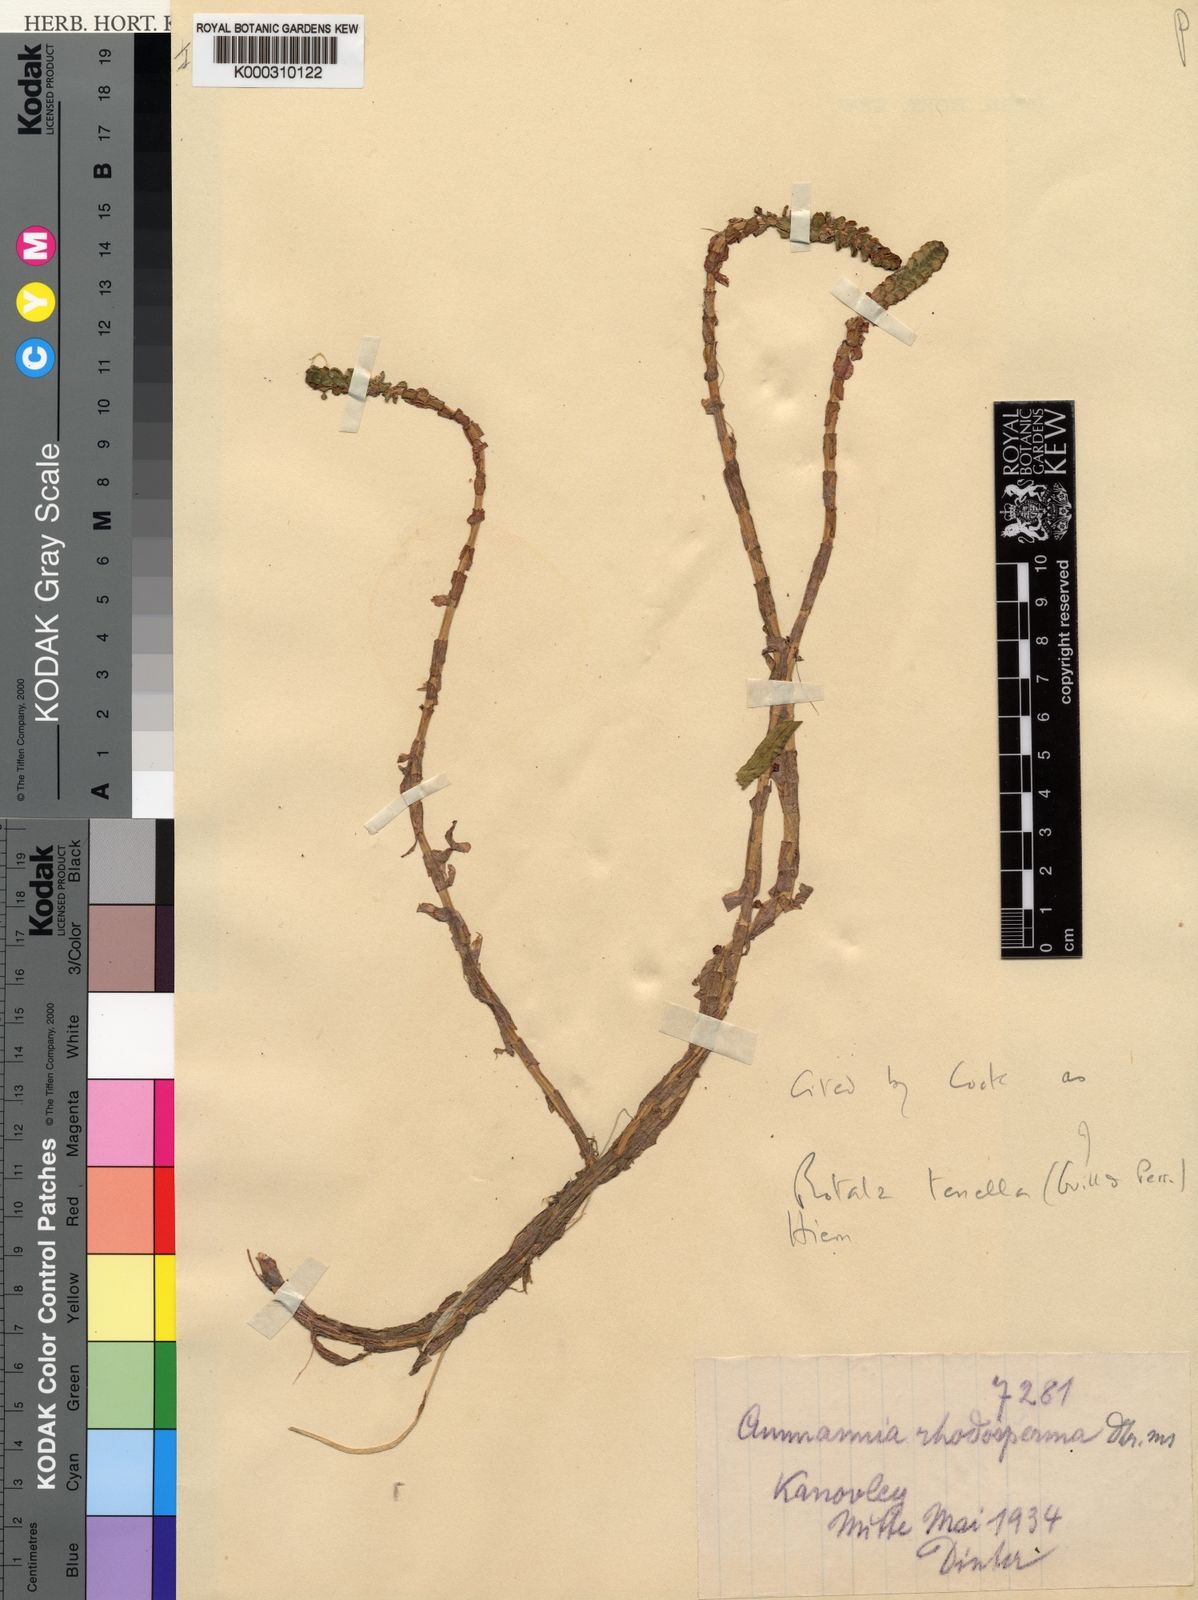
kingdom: Plantae
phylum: Tracheophyta
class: Magnoliopsida
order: Myrtales
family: Lythraceae
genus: Rotala
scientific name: Rotala tenella
